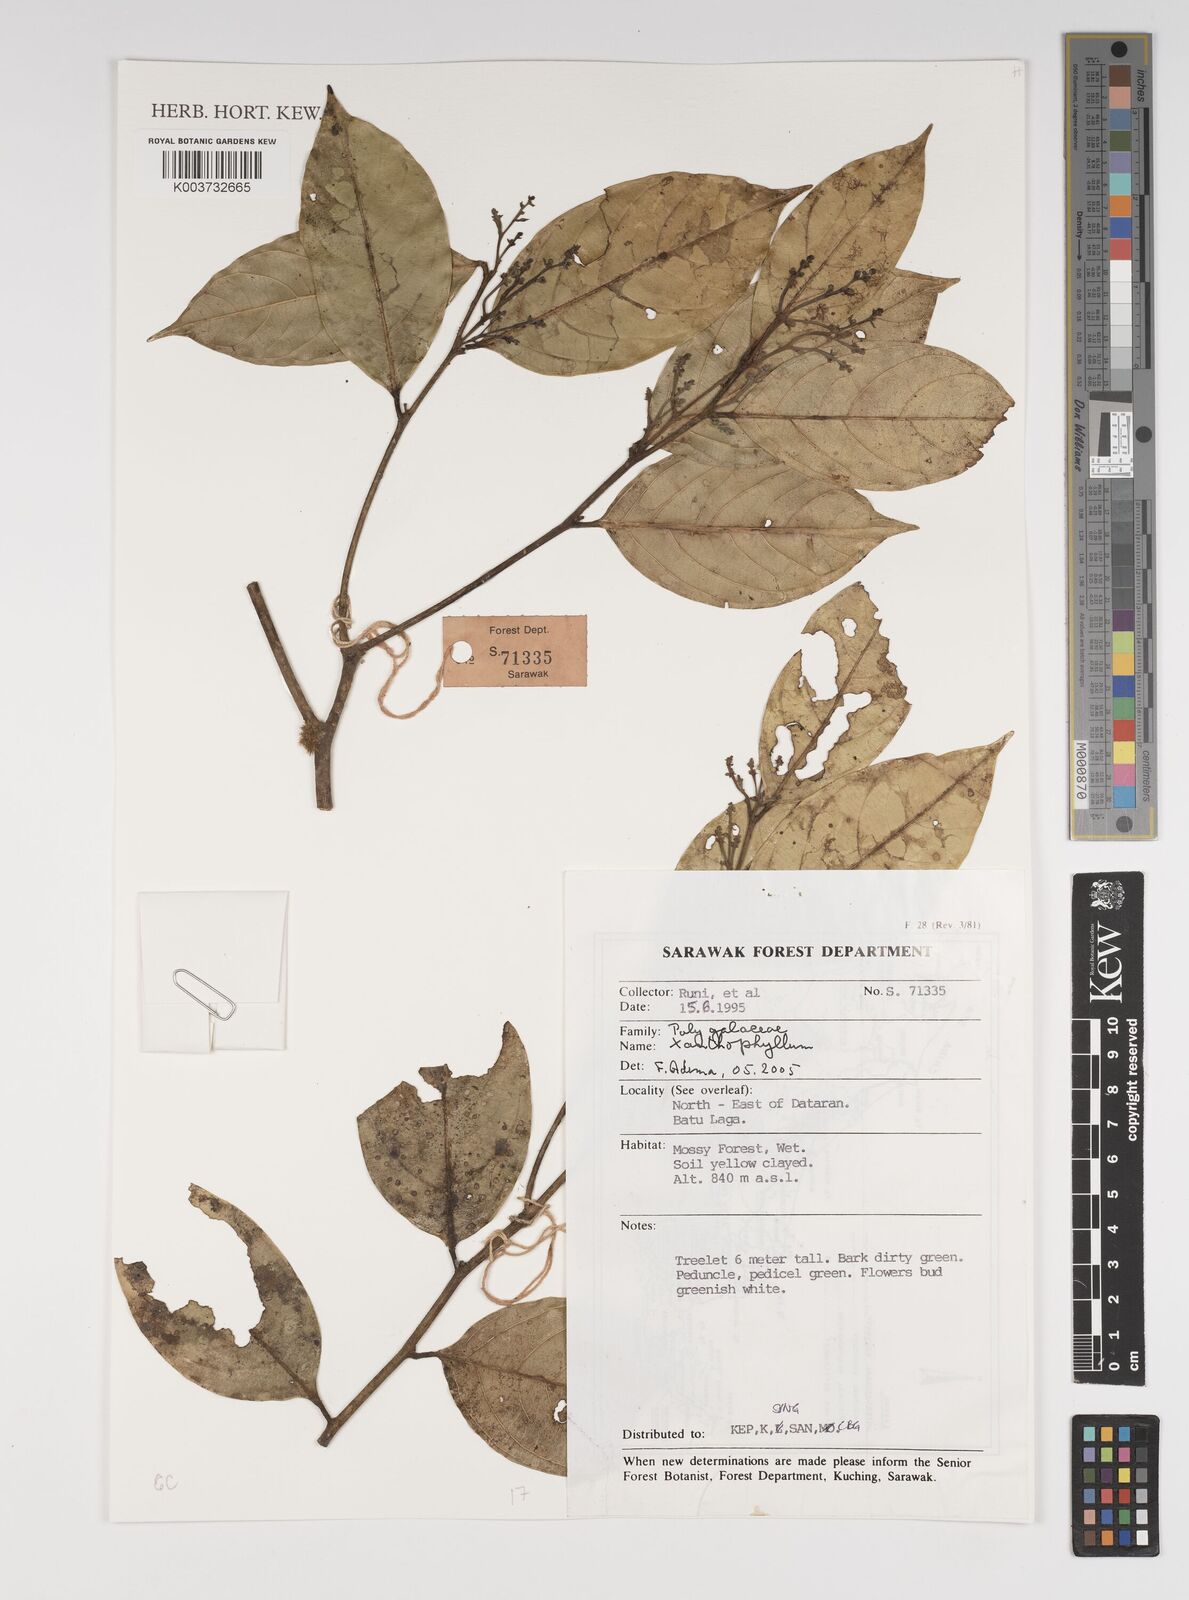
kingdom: Plantae
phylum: Tracheophyta
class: Magnoliopsida
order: Fabales
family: Polygalaceae
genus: Xanthophyllum
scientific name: Xanthophyllum
